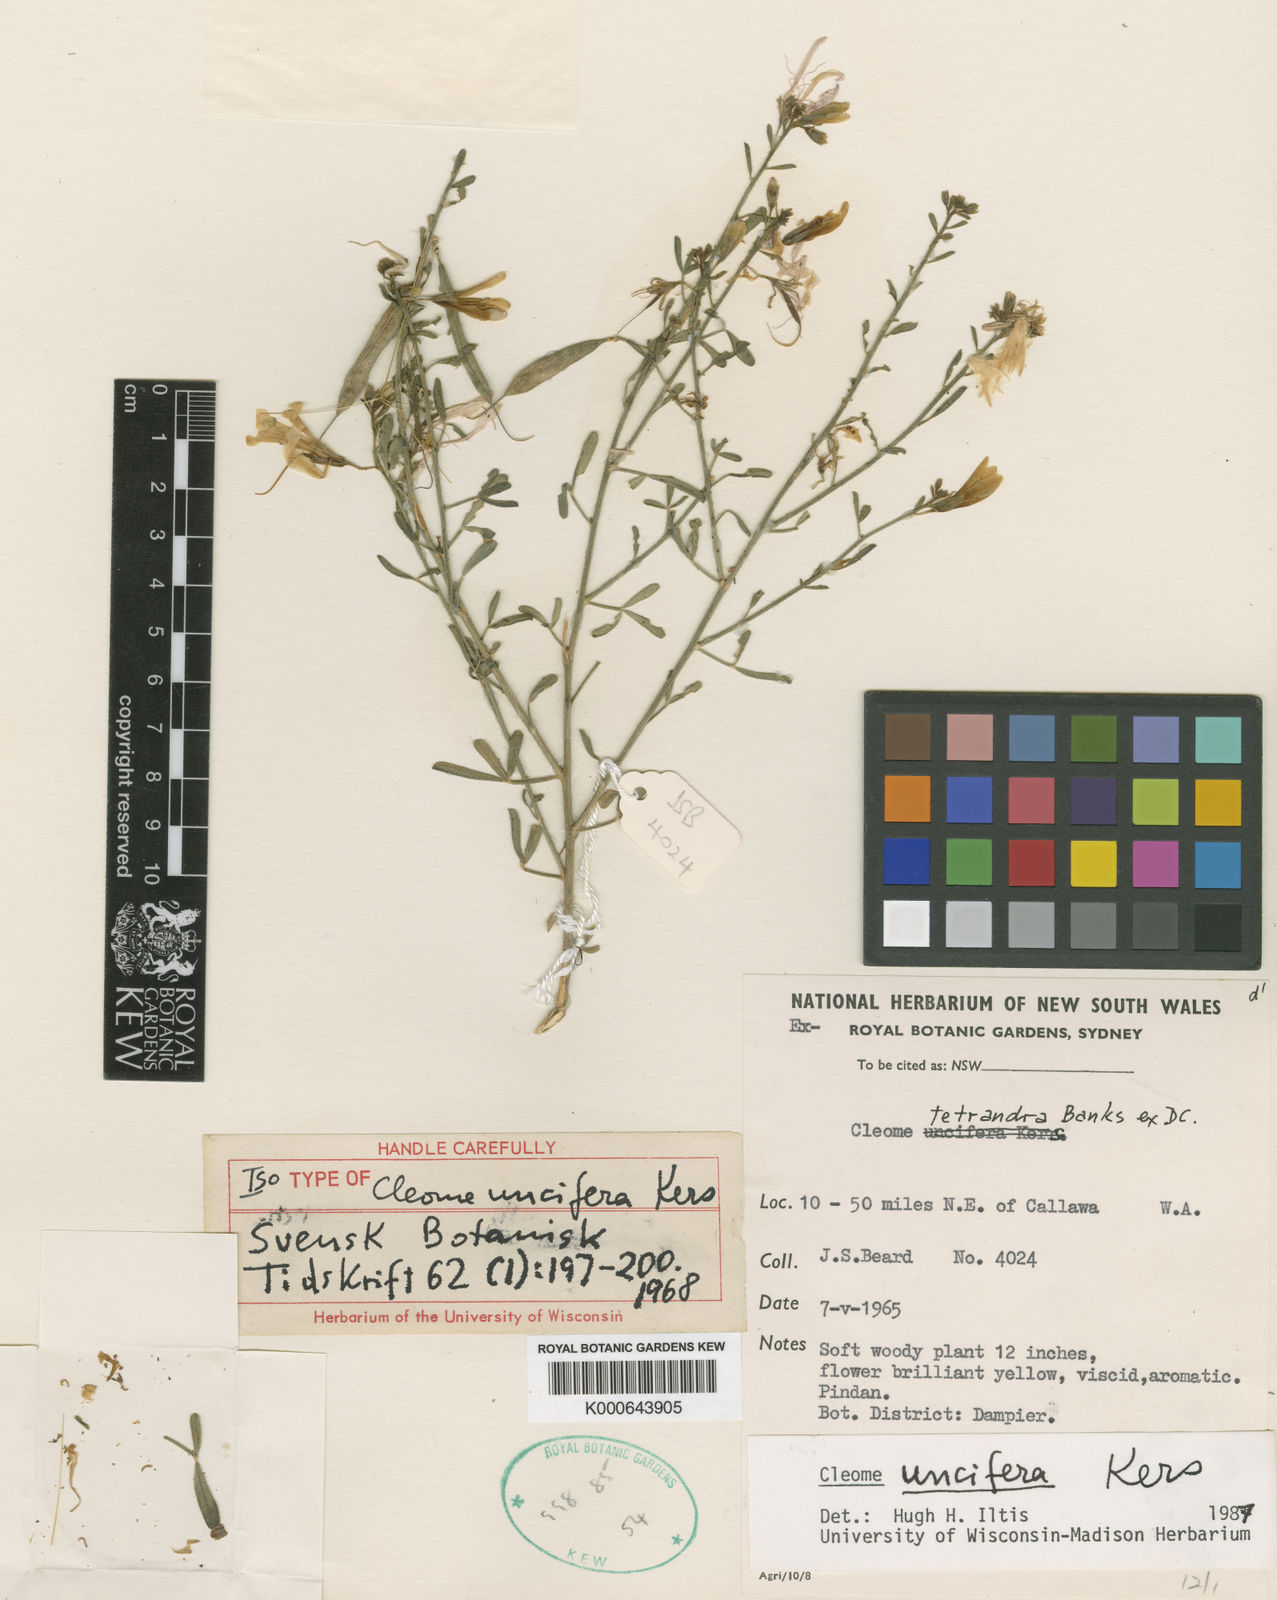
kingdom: Plantae
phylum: Tracheophyta
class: Magnoliopsida
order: Brassicales
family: Cleomaceae
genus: Cleome
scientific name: Cleome
